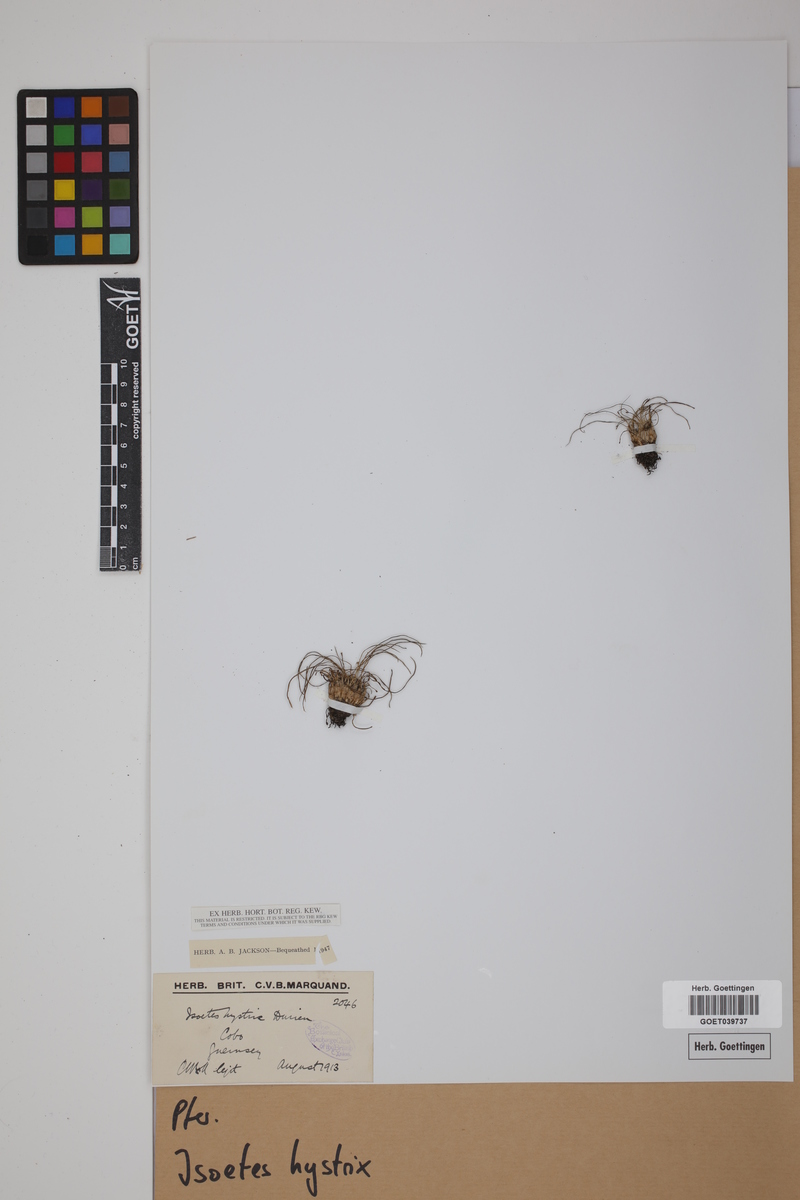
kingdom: Plantae
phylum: Tracheophyta
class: Lycopodiopsida
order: Isoetales
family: Isoetaceae
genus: Isoetes
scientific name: Isoetes histrix
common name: Land quillwort
